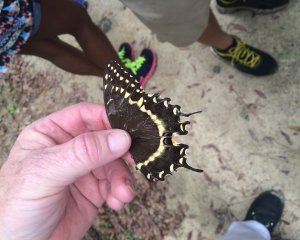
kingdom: Animalia
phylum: Arthropoda
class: Insecta
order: Lepidoptera
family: Papilionidae
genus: Pterourus
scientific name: Pterourus palamedes
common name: Palamedes Swallowtail
